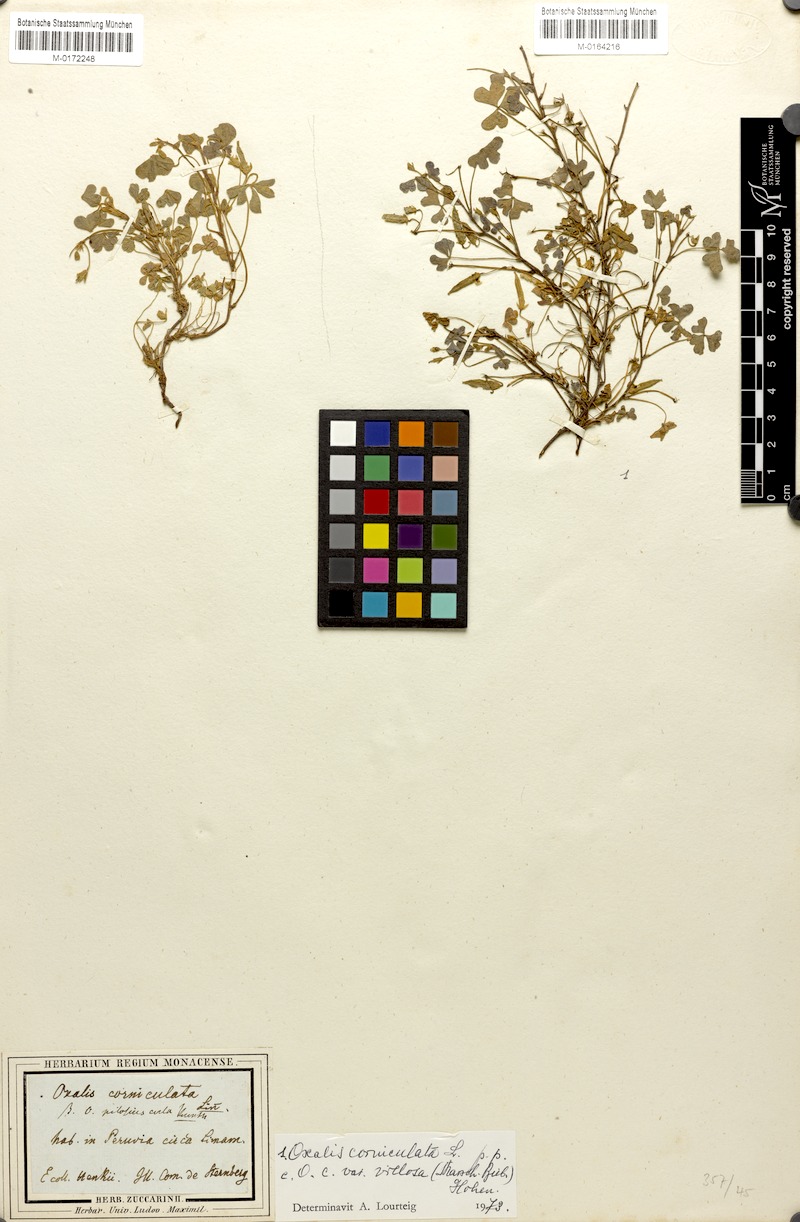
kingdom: Plantae
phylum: Tracheophyta
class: Magnoliopsida
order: Oxalidales
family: Oxalidaceae
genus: Oxalis
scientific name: Oxalis corniculata
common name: Procumbent yellow-sorrel
